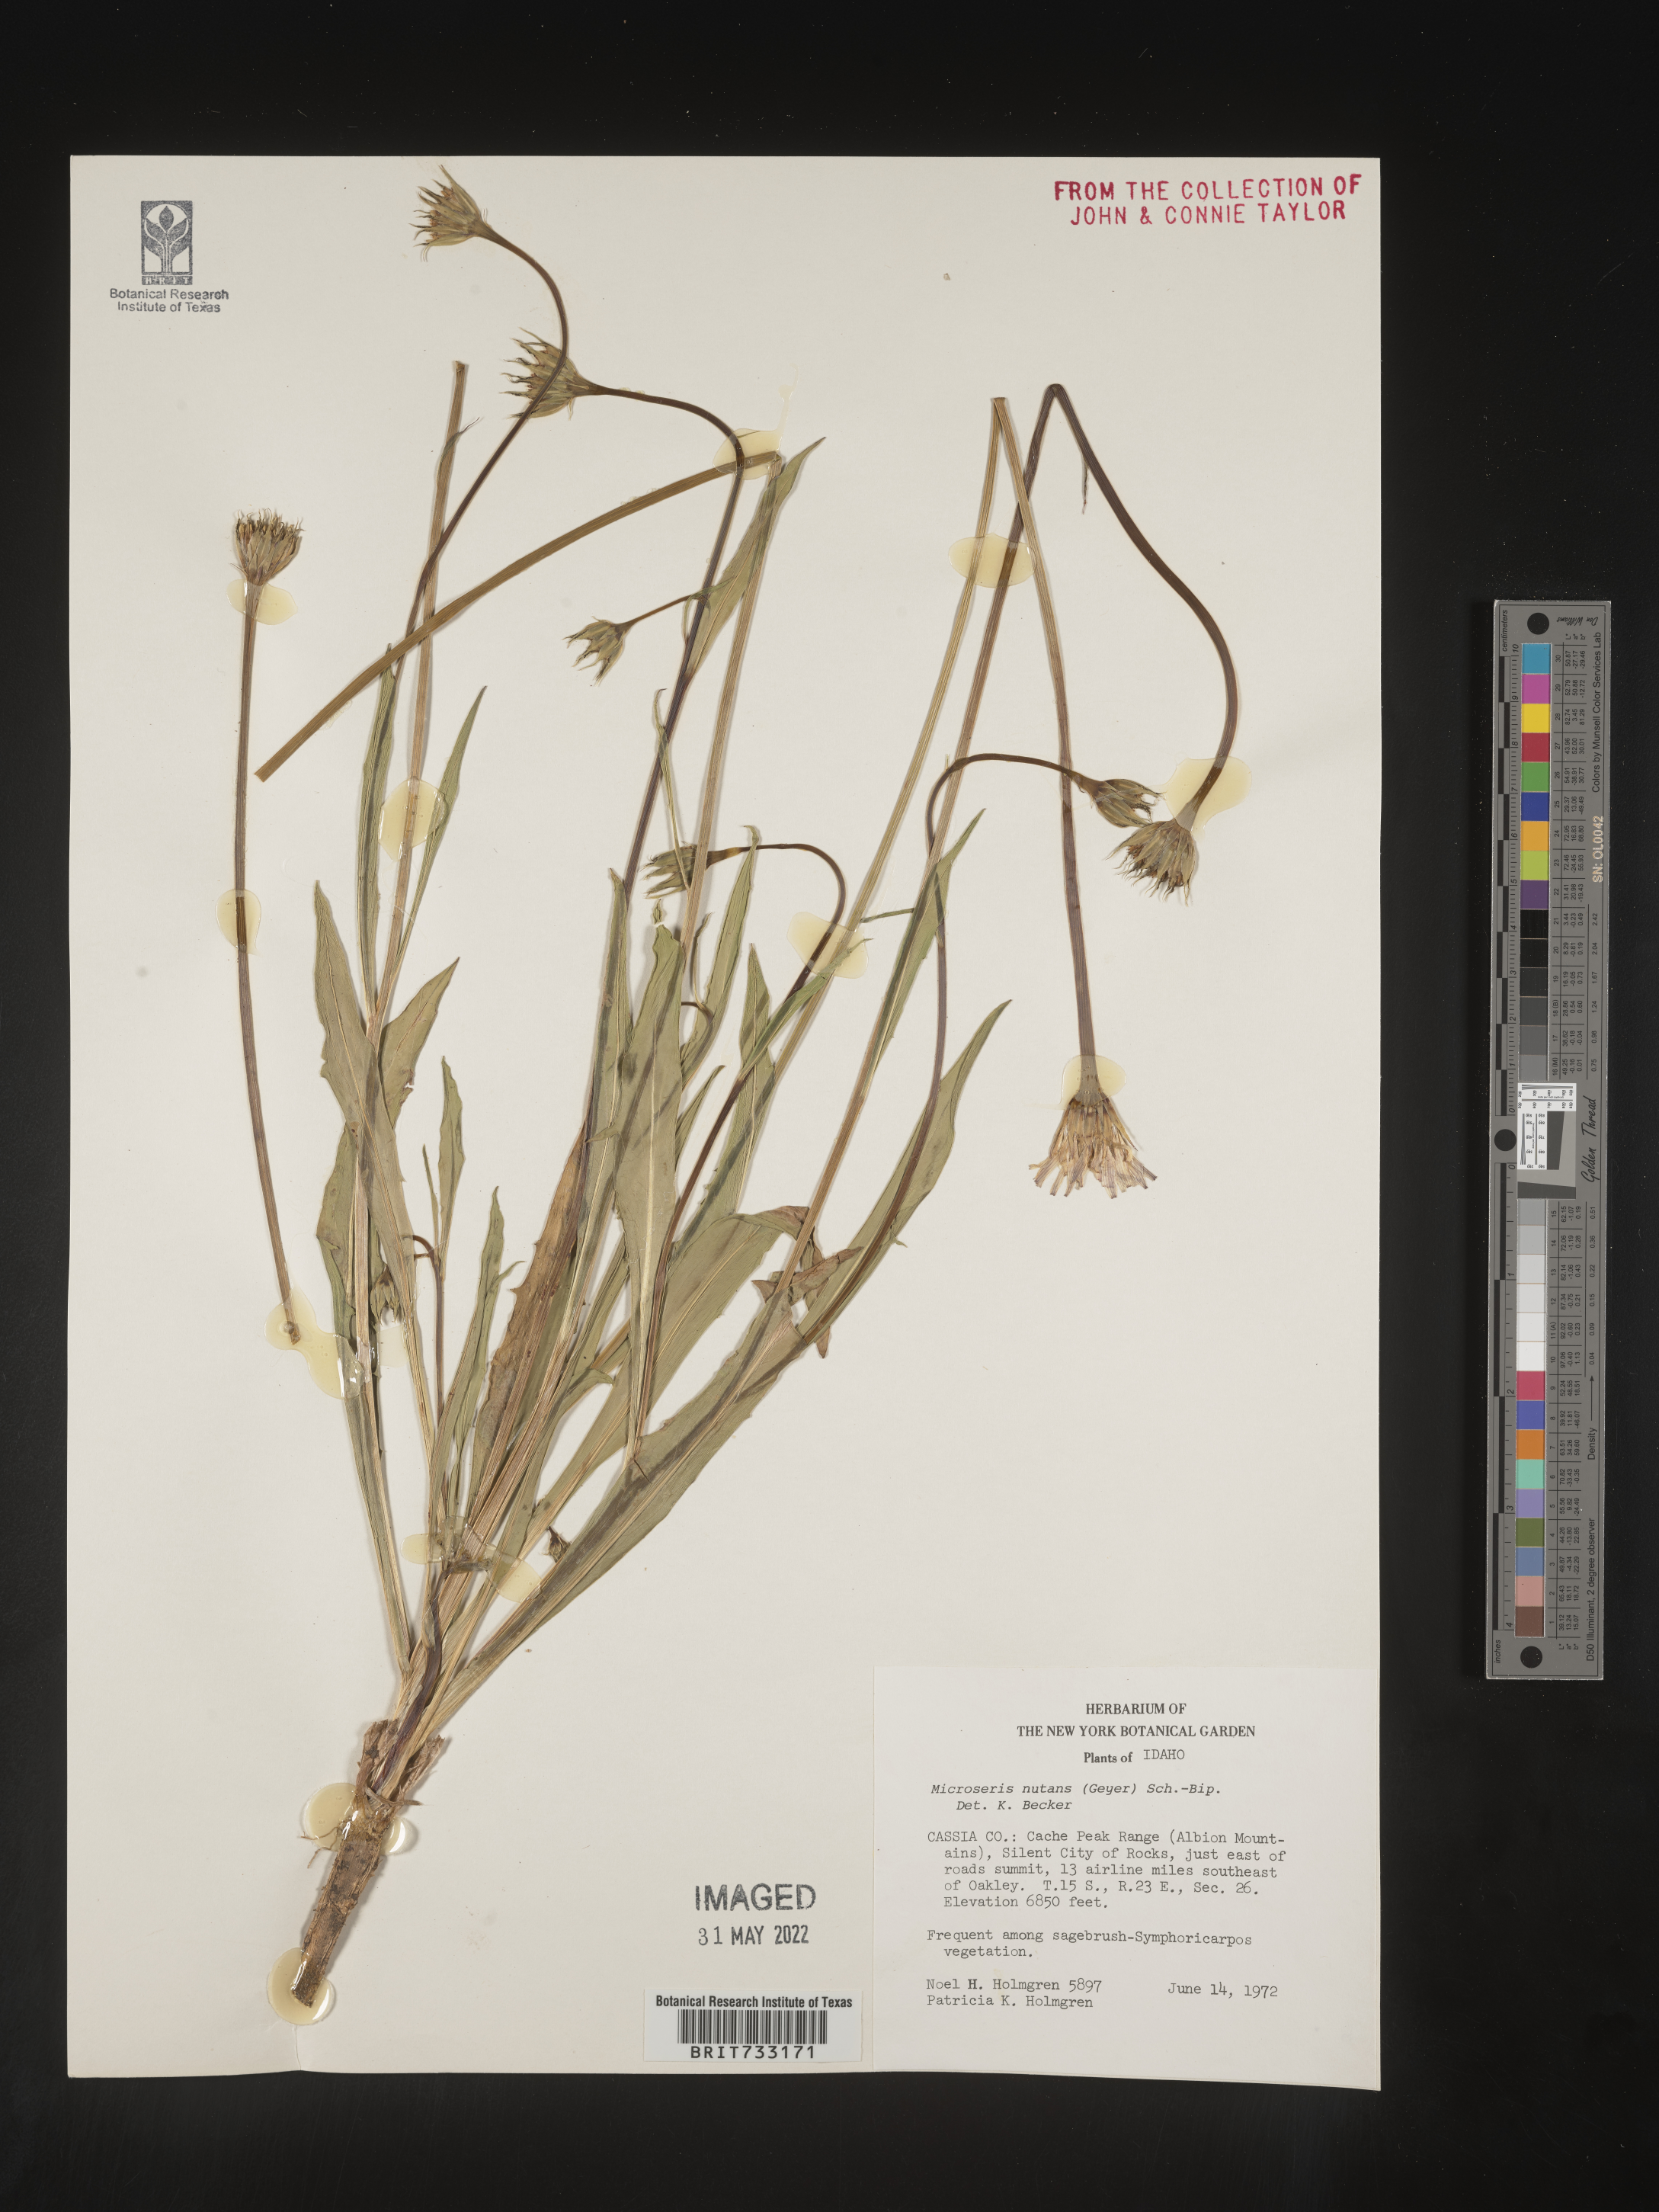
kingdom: Plantae
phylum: Tracheophyta
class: Magnoliopsida
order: Asterales
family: Asteraceae
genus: Microseris
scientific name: Microseris nutans
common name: Nodding microseris
